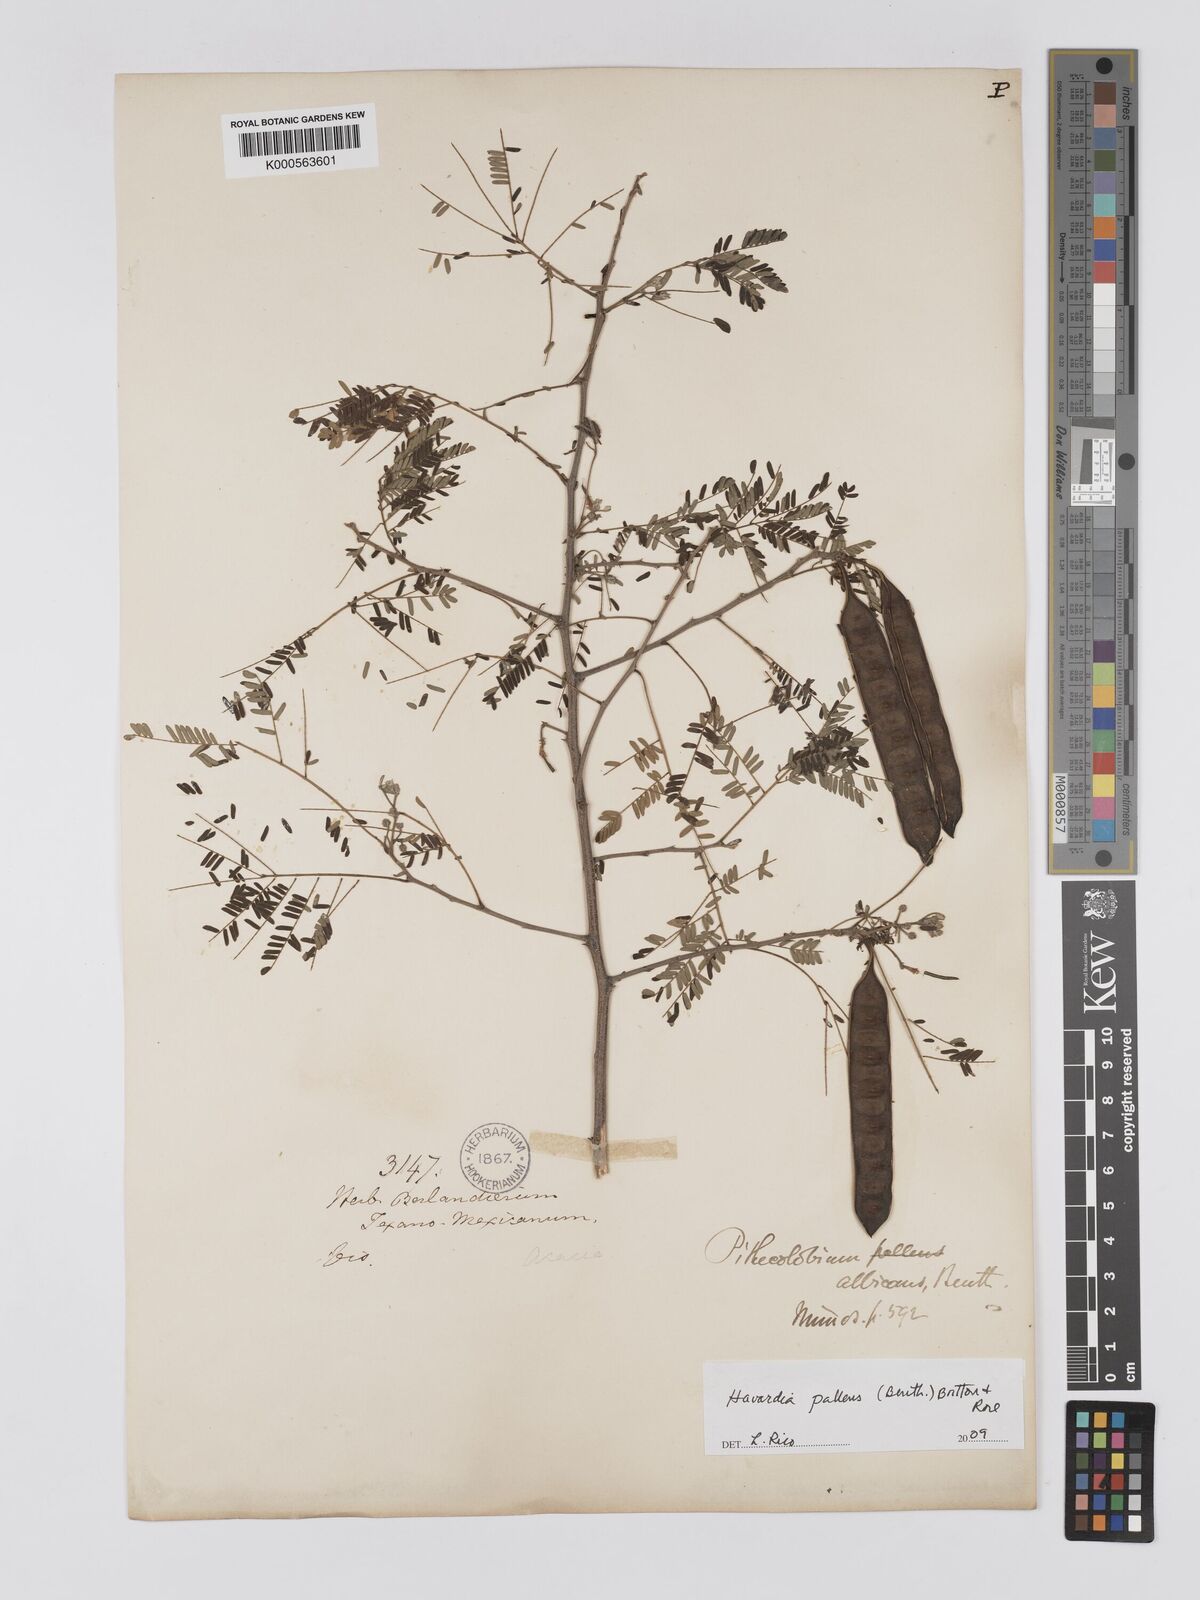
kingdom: Plantae
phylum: Tracheophyta
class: Magnoliopsida
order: Fabales
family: Fabaceae
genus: Havardia
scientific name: Havardia albicans
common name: Huisache
